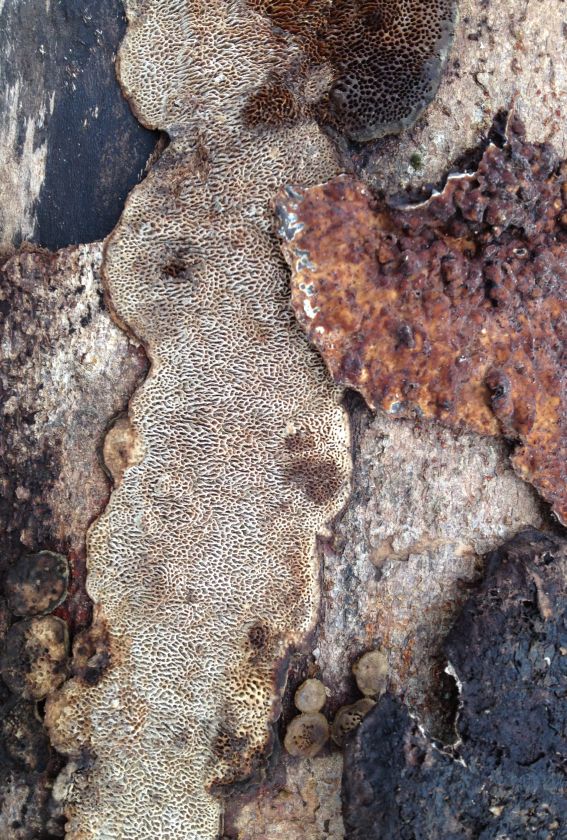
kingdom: Fungi
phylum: Basidiomycota
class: Agaricomycetes
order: Polyporales
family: Polyporaceae
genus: Podofomes
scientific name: Podofomes mollis
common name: blød begporesvamp
